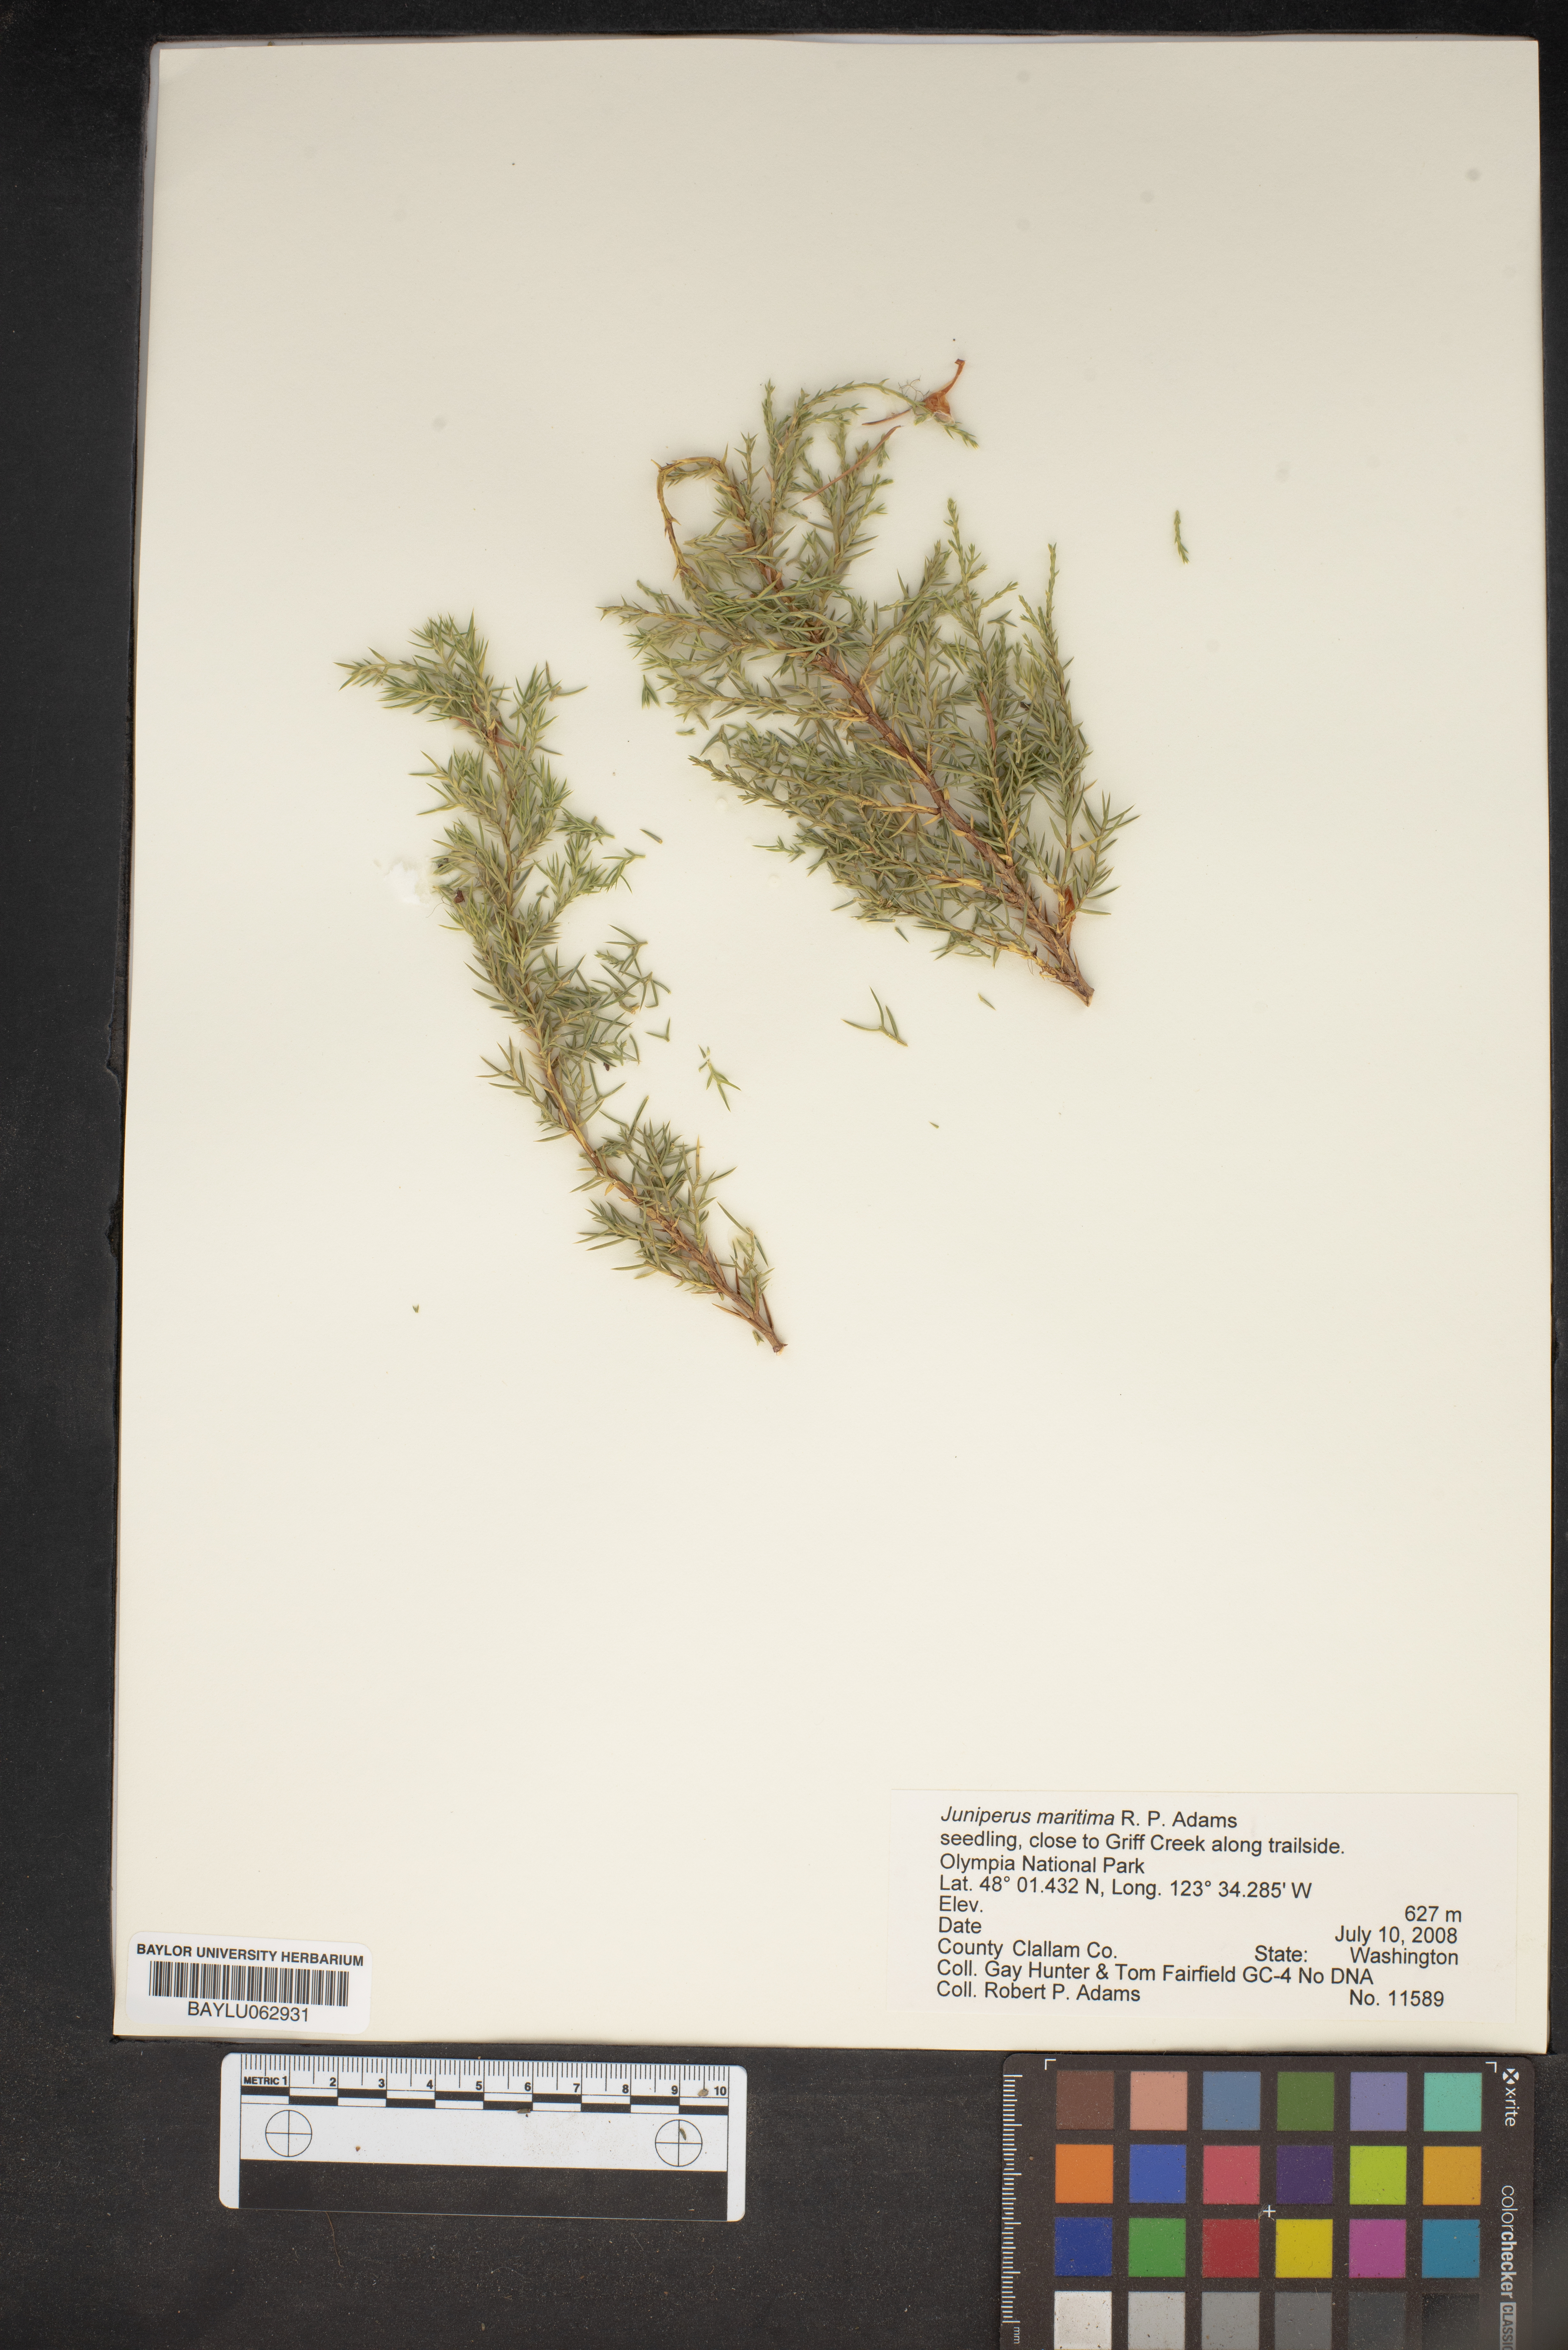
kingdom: Plantae
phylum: Tracheophyta
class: Pinopsida
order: Pinales
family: Cupressaceae
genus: Juniperus
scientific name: Juniperus scopulorum
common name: Rocky mountain juniper
